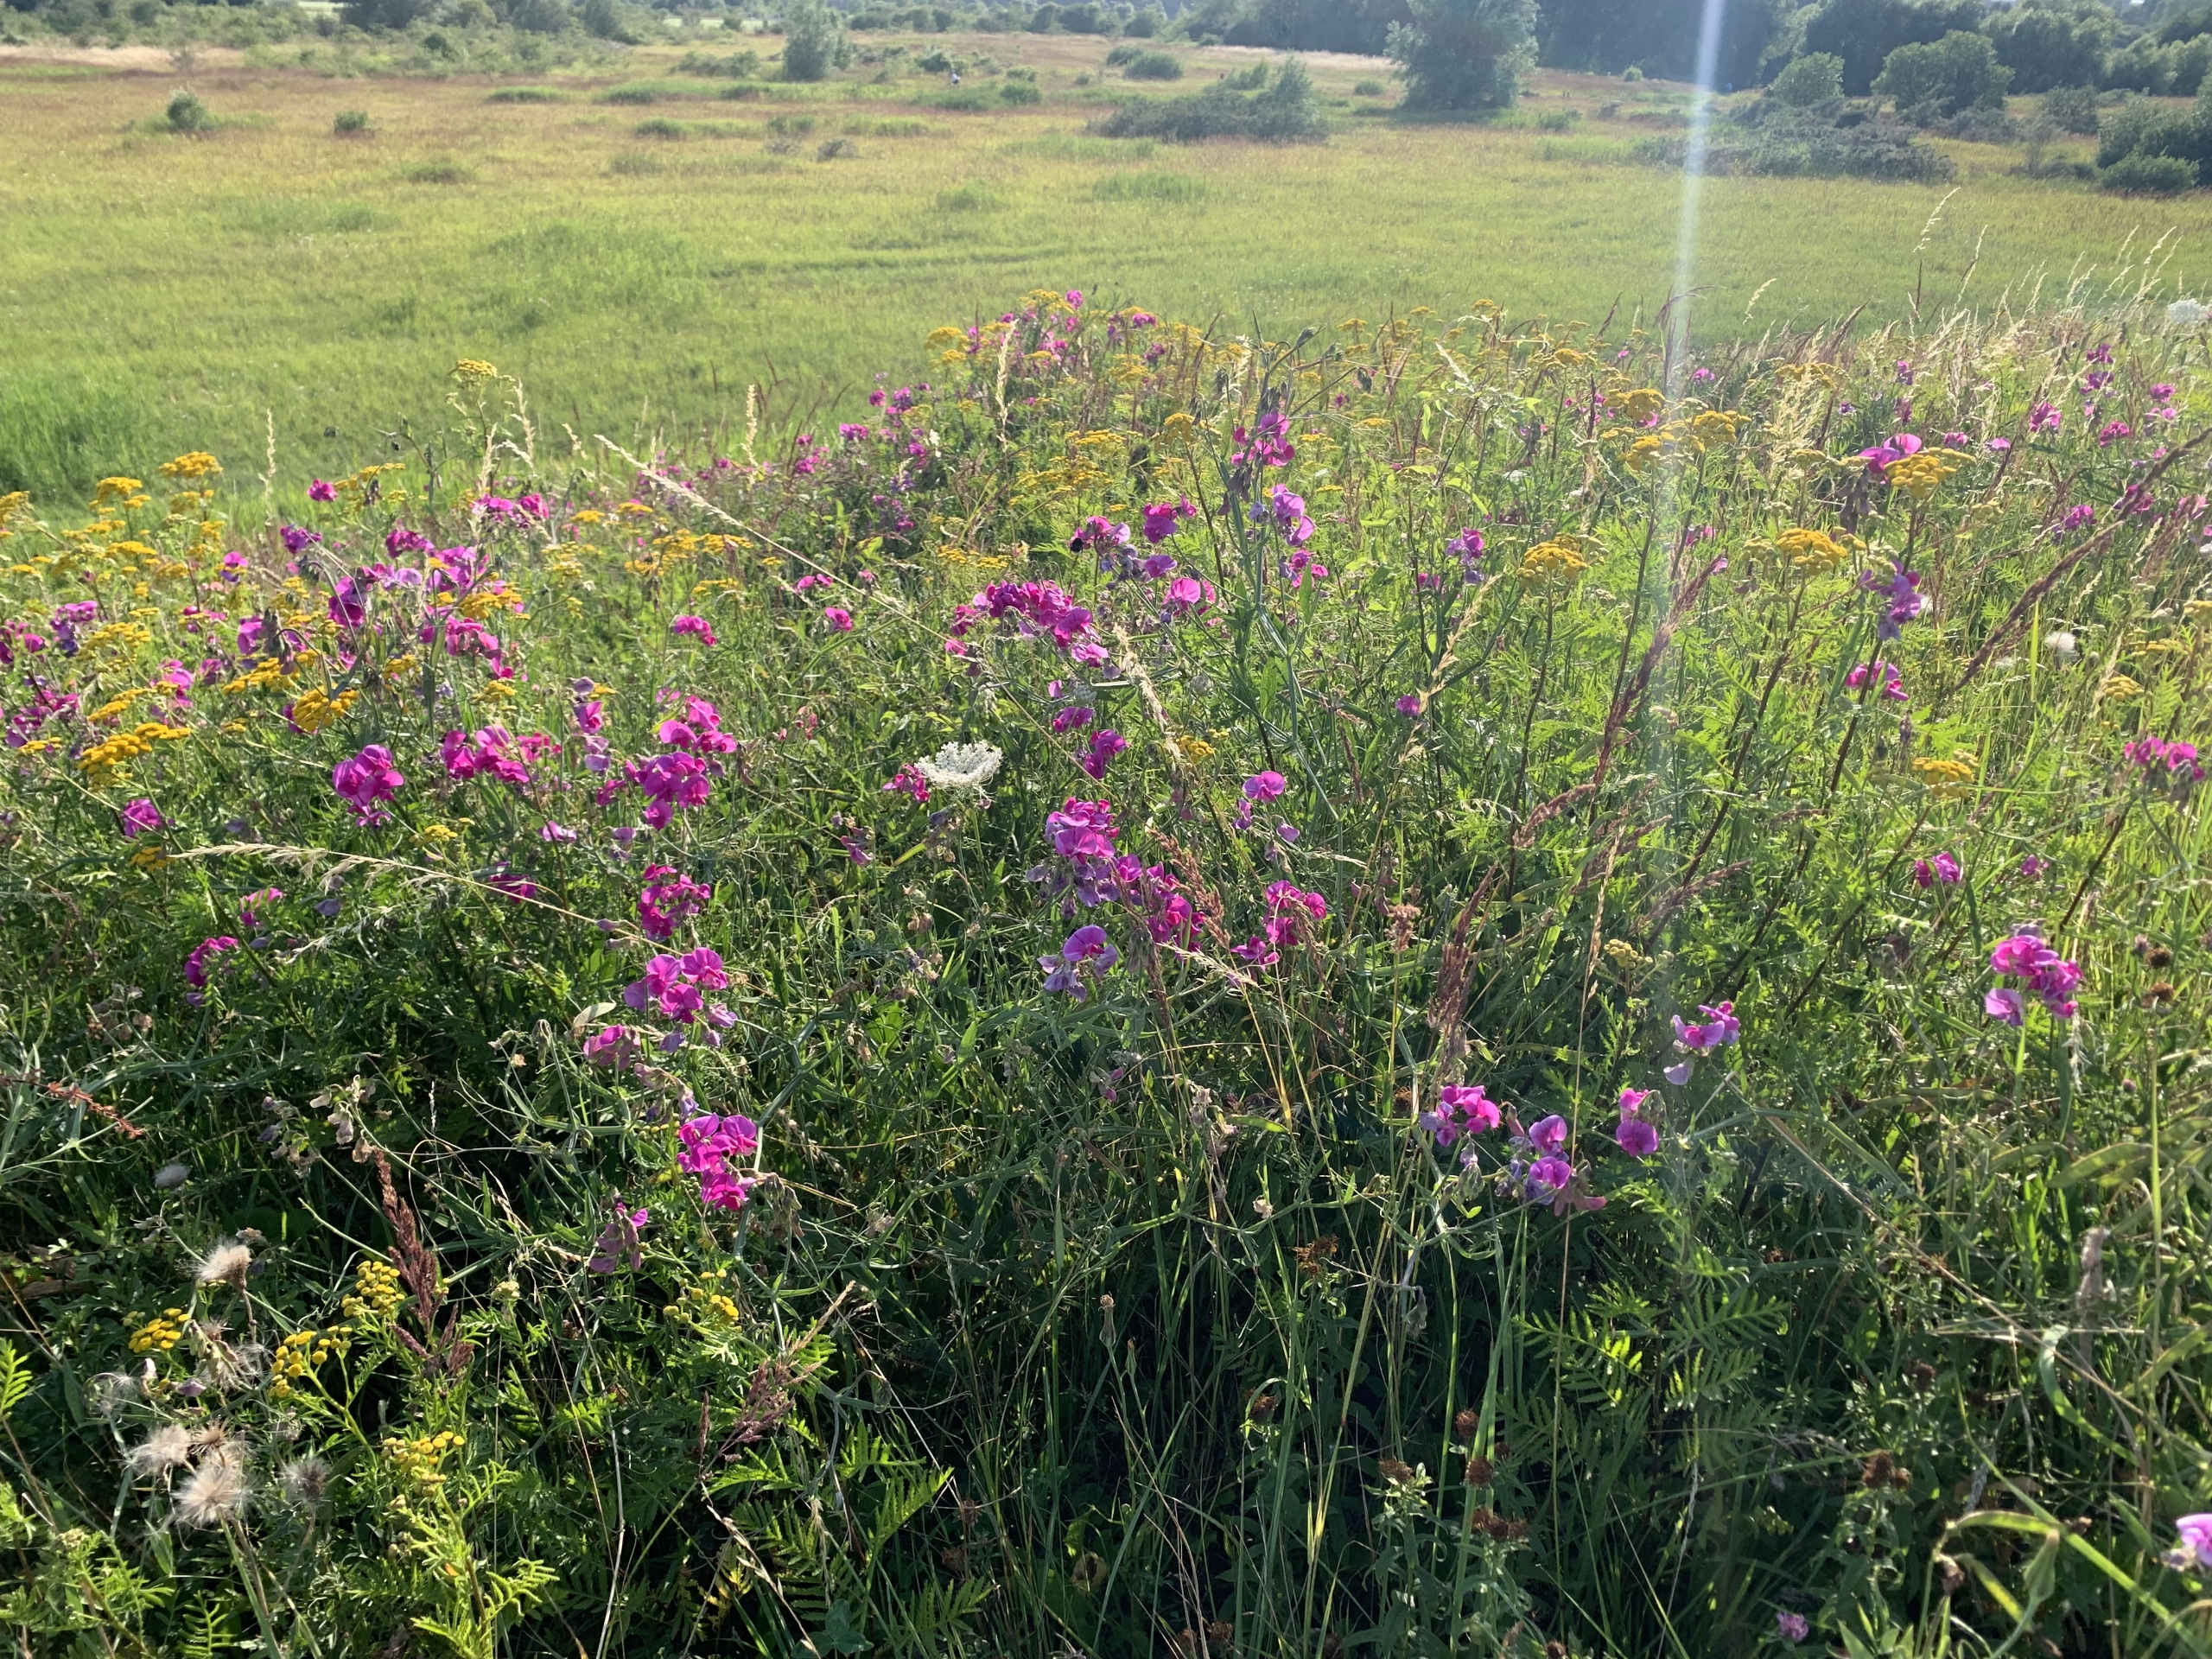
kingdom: Plantae
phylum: Tracheophyta
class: Magnoliopsida
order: Fabales
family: Fabaceae
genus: Lathyrus
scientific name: Lathyrus latifolius
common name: Flerårig ærteblomst
